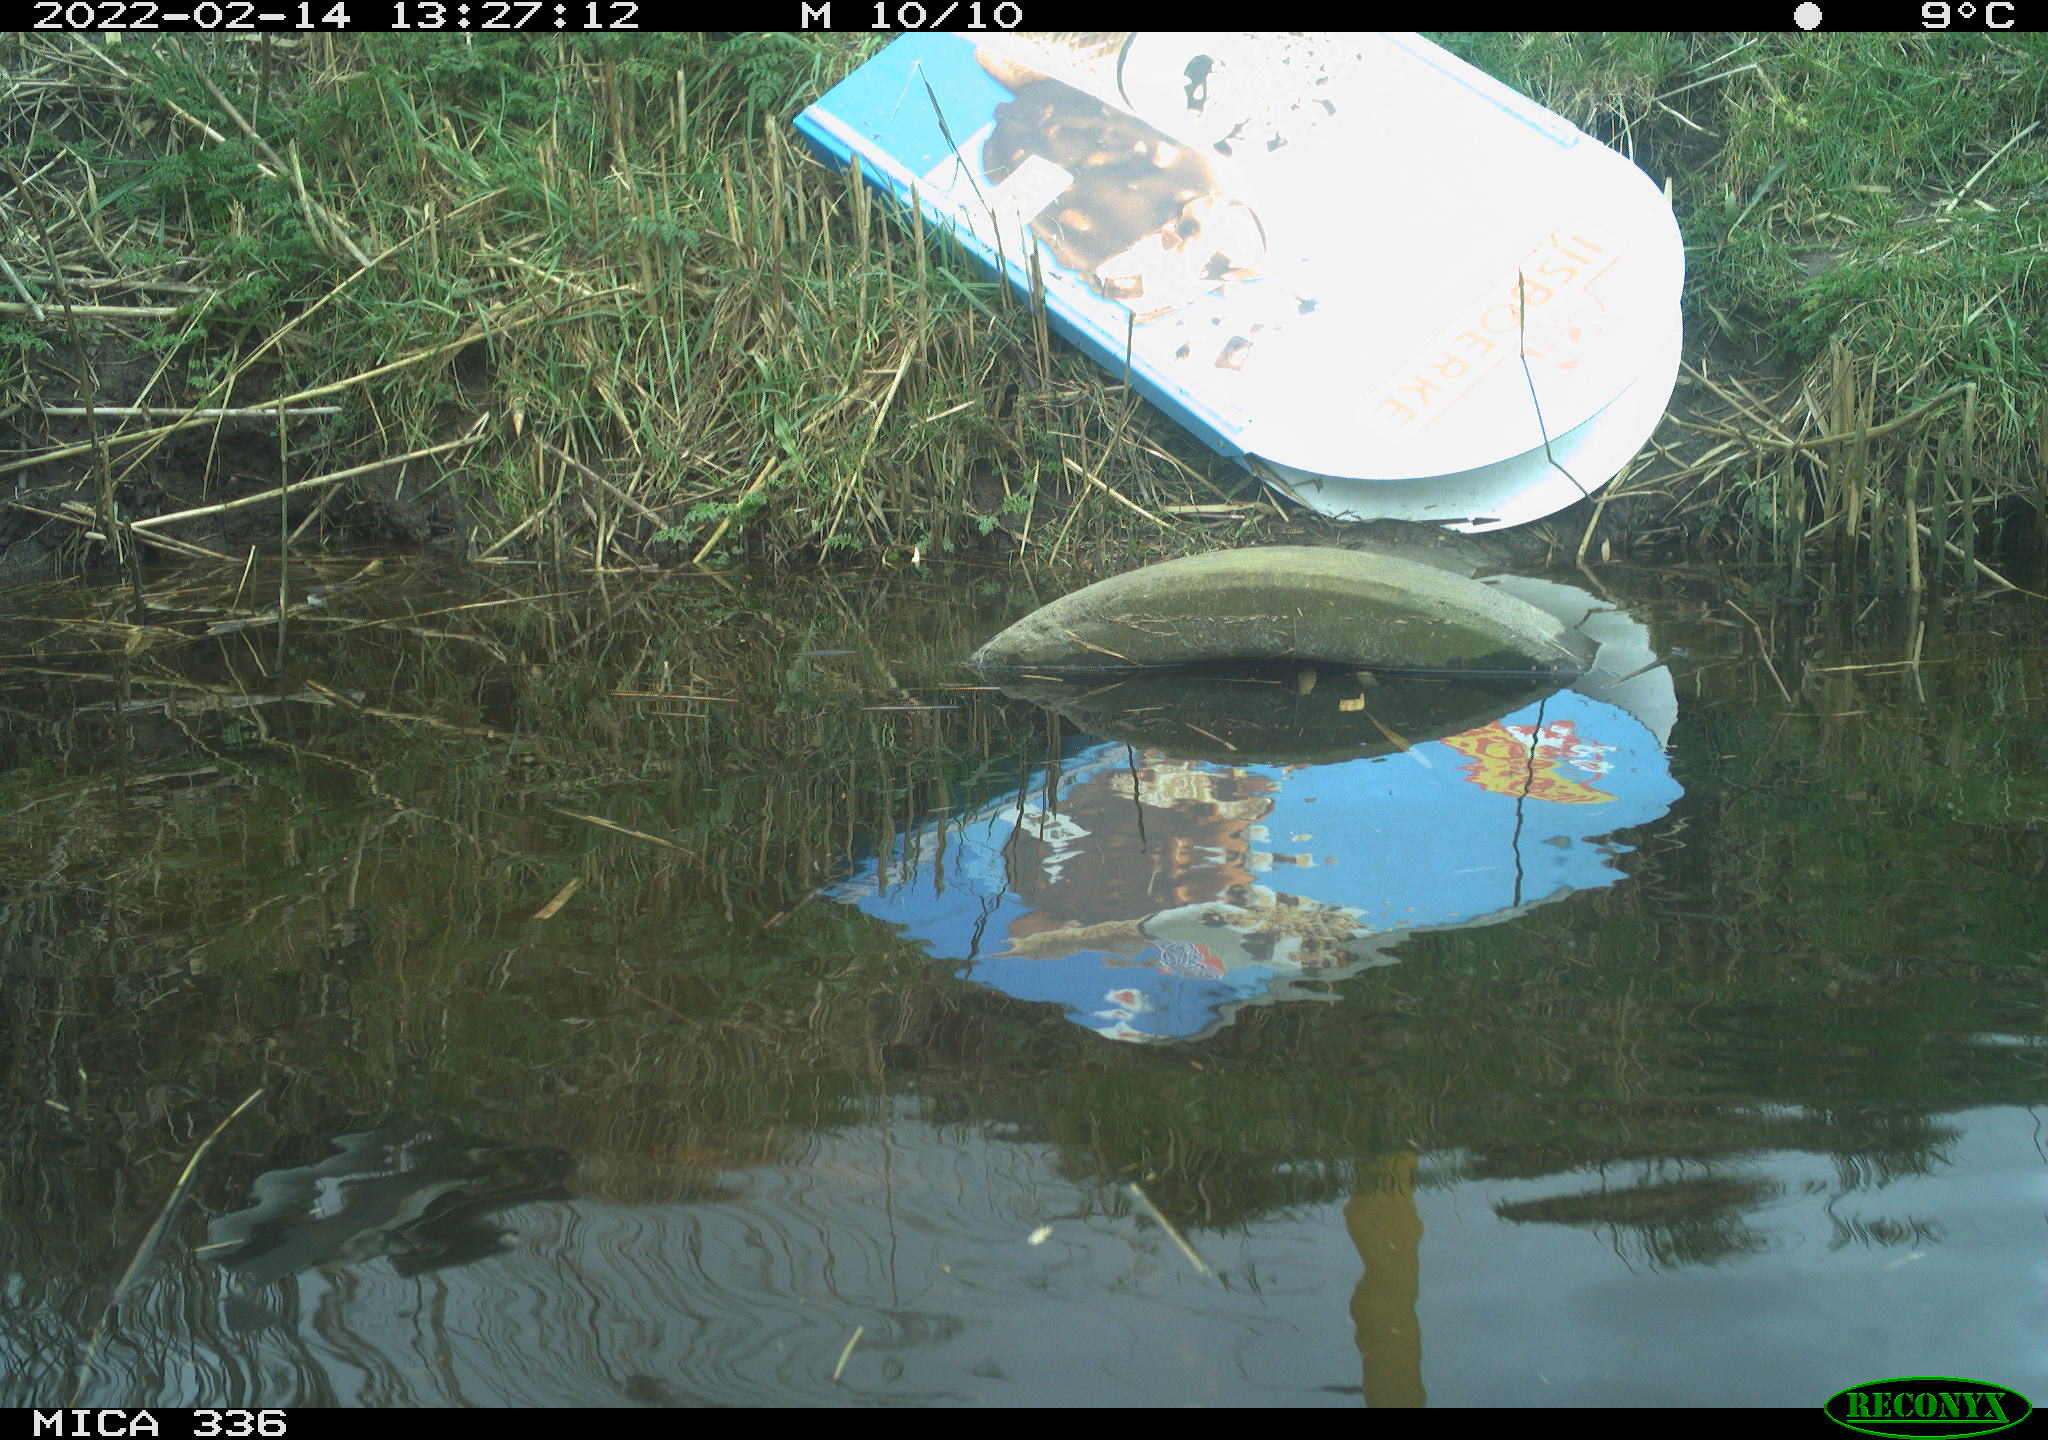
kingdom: Animalia
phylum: Chordata
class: Aves
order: Gruiformes
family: Rallidae
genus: Gallinula
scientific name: Gallinula chloropus
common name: Common moorhen
